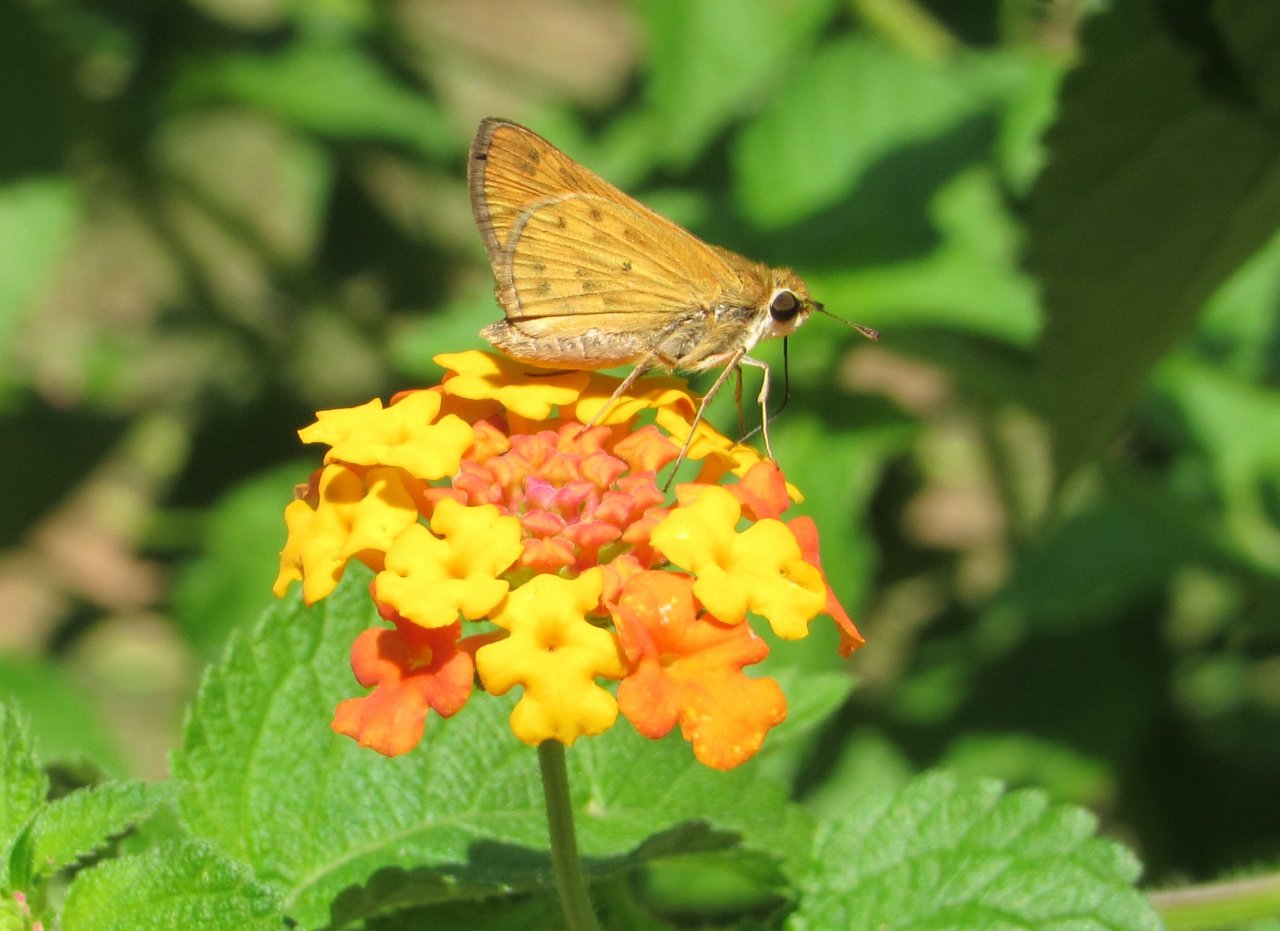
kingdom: Animalia
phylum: Arthropoda
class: Insecta
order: Lepidoptera
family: Hesperiidae
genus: Hylephila
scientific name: Hylephila phyleus
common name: Fiery Skipper
